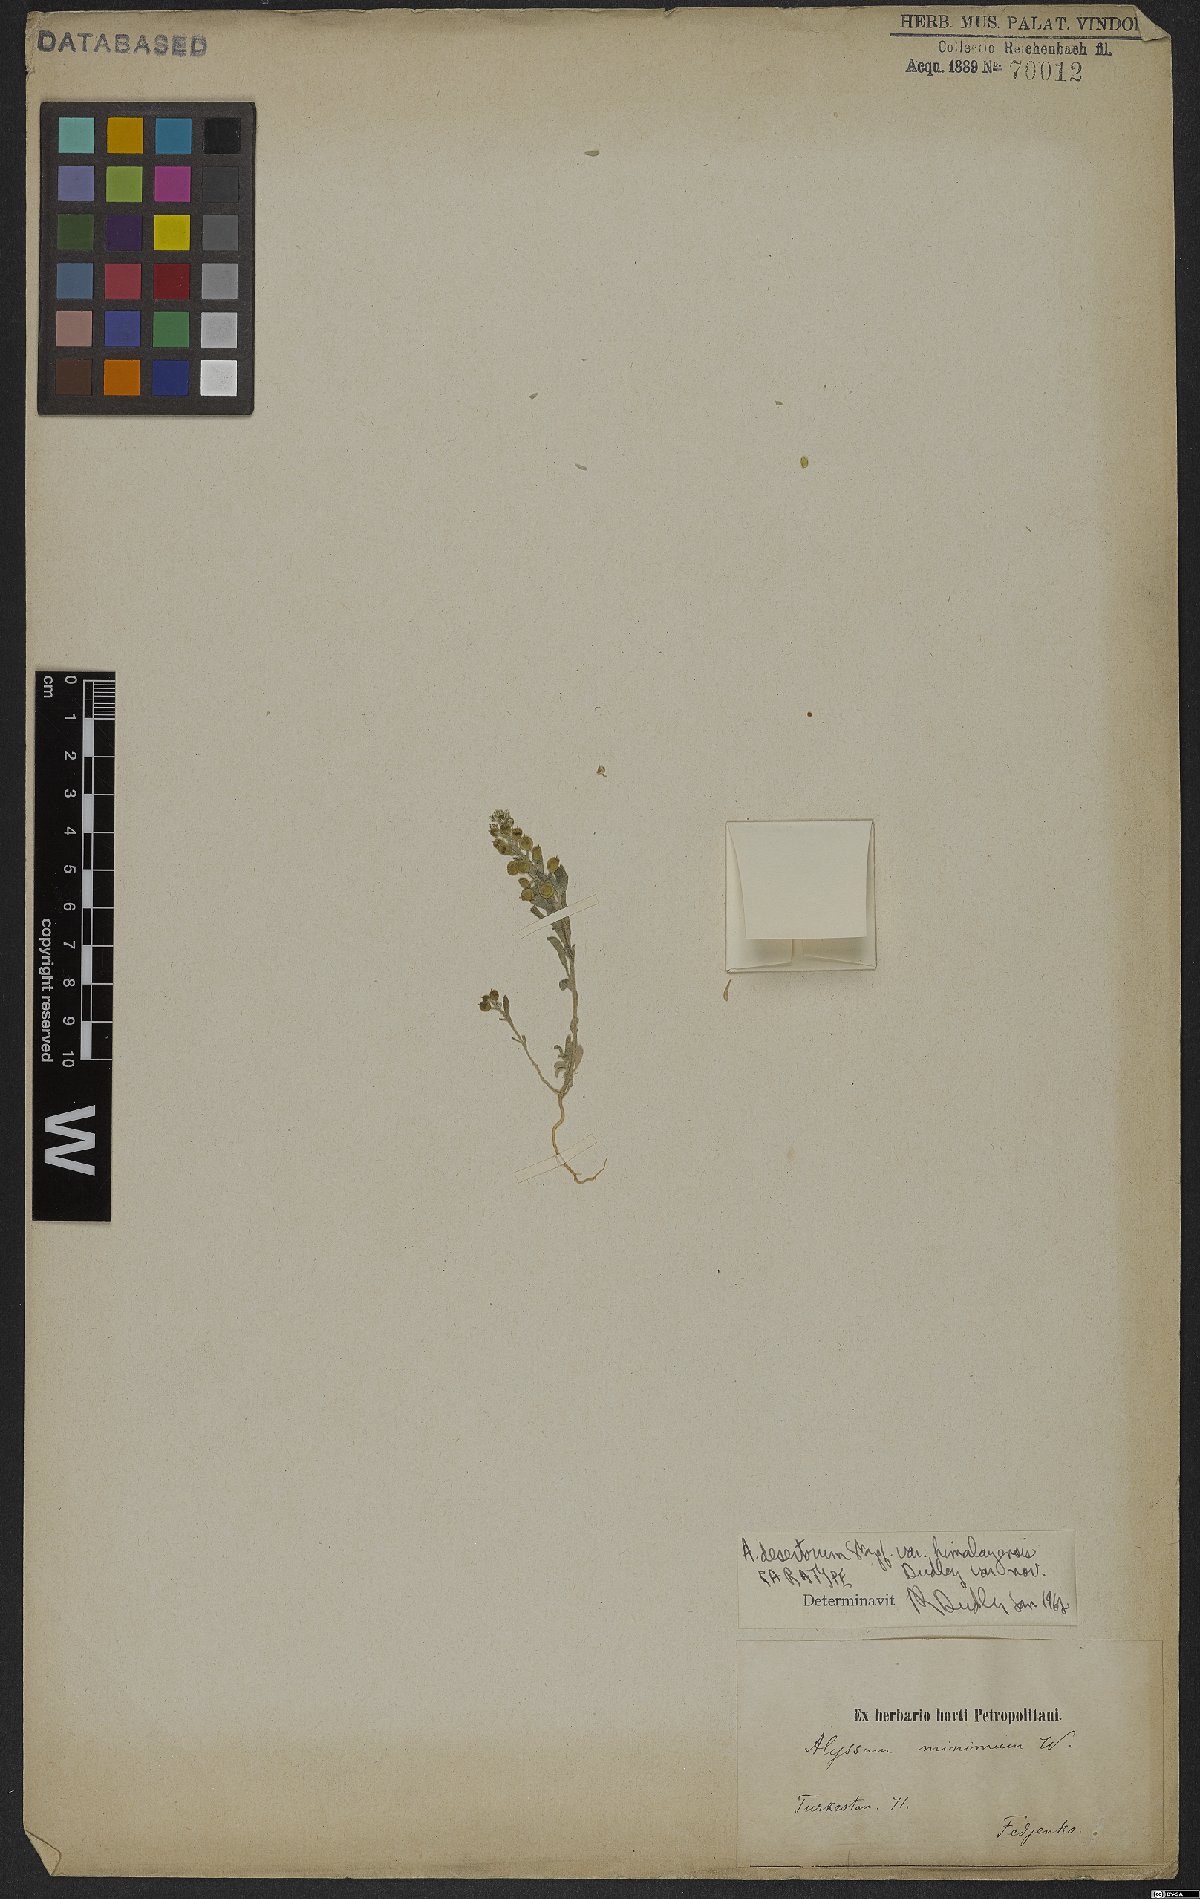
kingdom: Plantae
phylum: Tracheophyta
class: Magnoliopsida
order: Brassicales
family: Brassicaceae
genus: Alyssum
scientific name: Alyssum turkestanicum
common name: Desert alyssum
